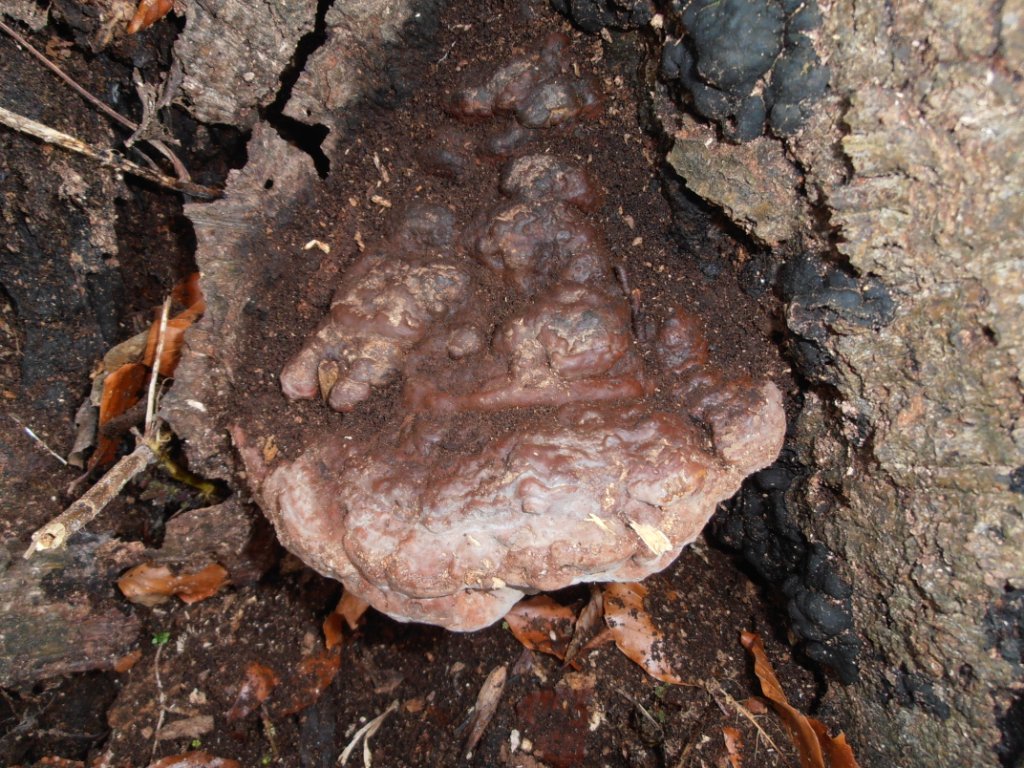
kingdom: Fungi
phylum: Basidiomycota
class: Agaricomycetes
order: Polyporales
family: Polyporaceae
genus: Ganoderma
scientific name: Ganoderma pfeifferi
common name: kobberrød lakporesvamp
